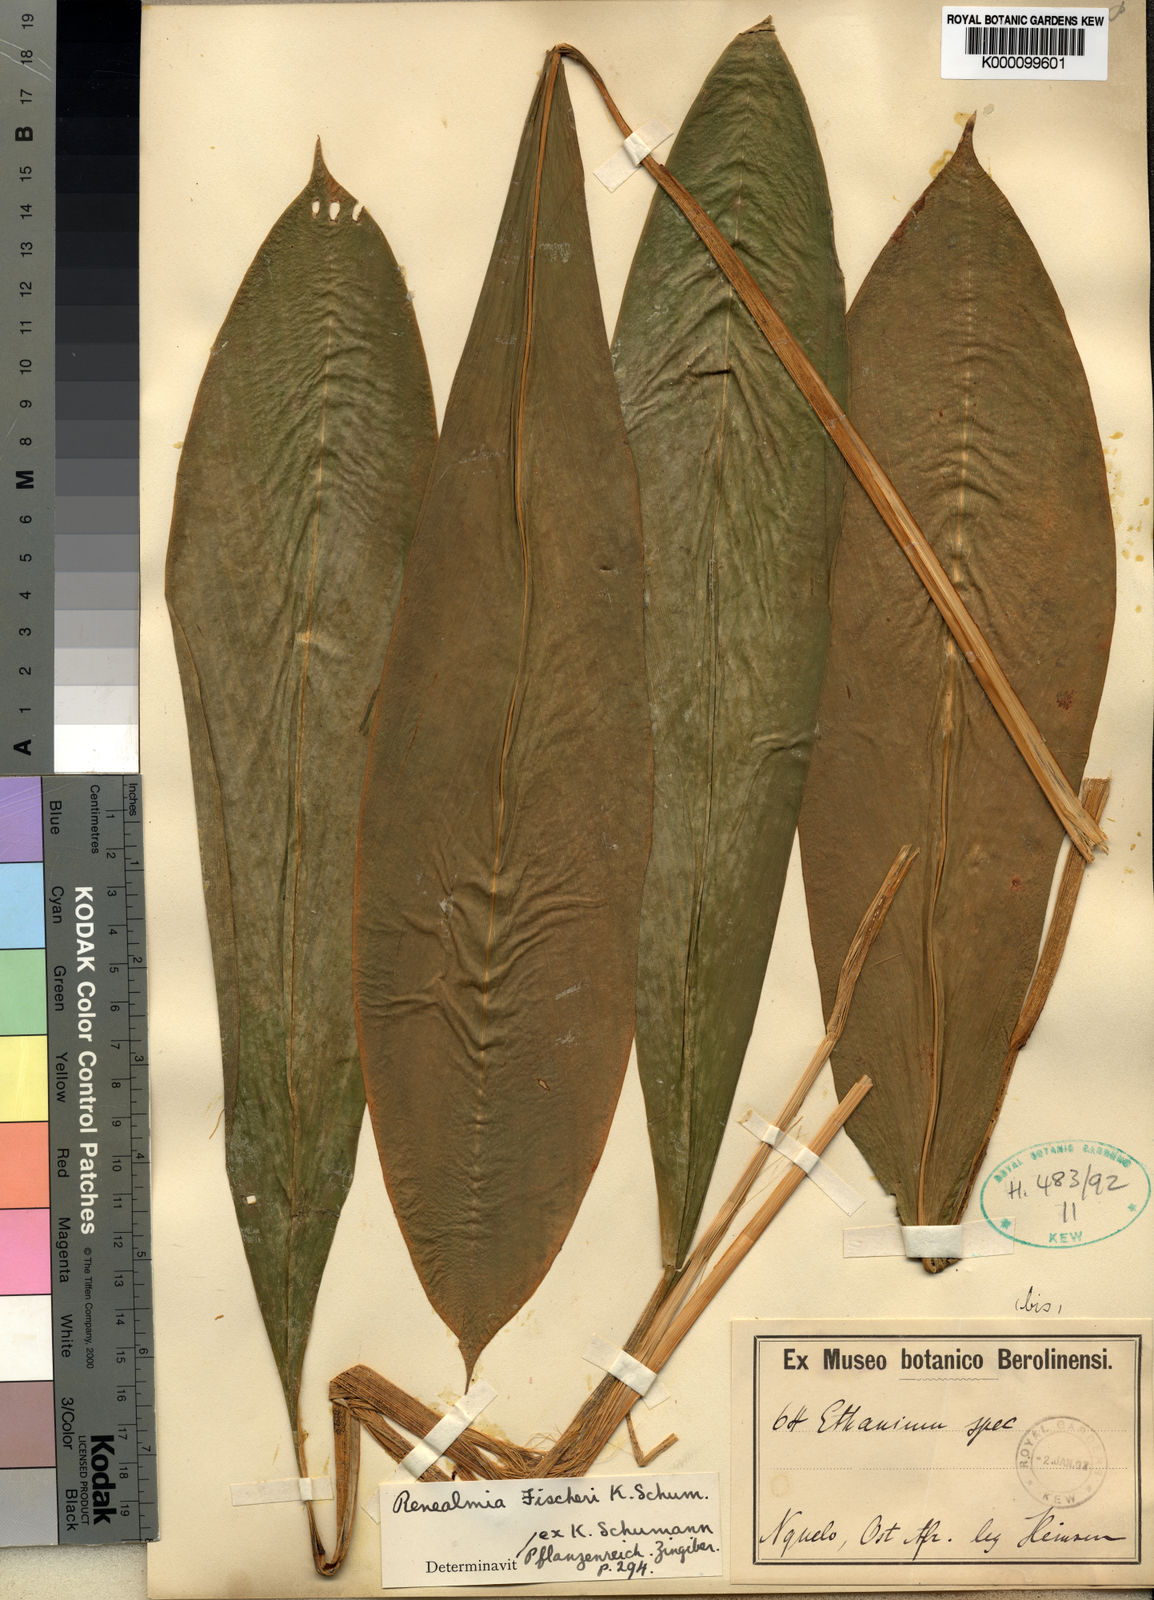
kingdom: Plantae
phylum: Tracheophyta
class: Liliopsida
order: Zingiberales
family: Zingiberaceae
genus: Renealmia
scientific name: Renealmia engleri
